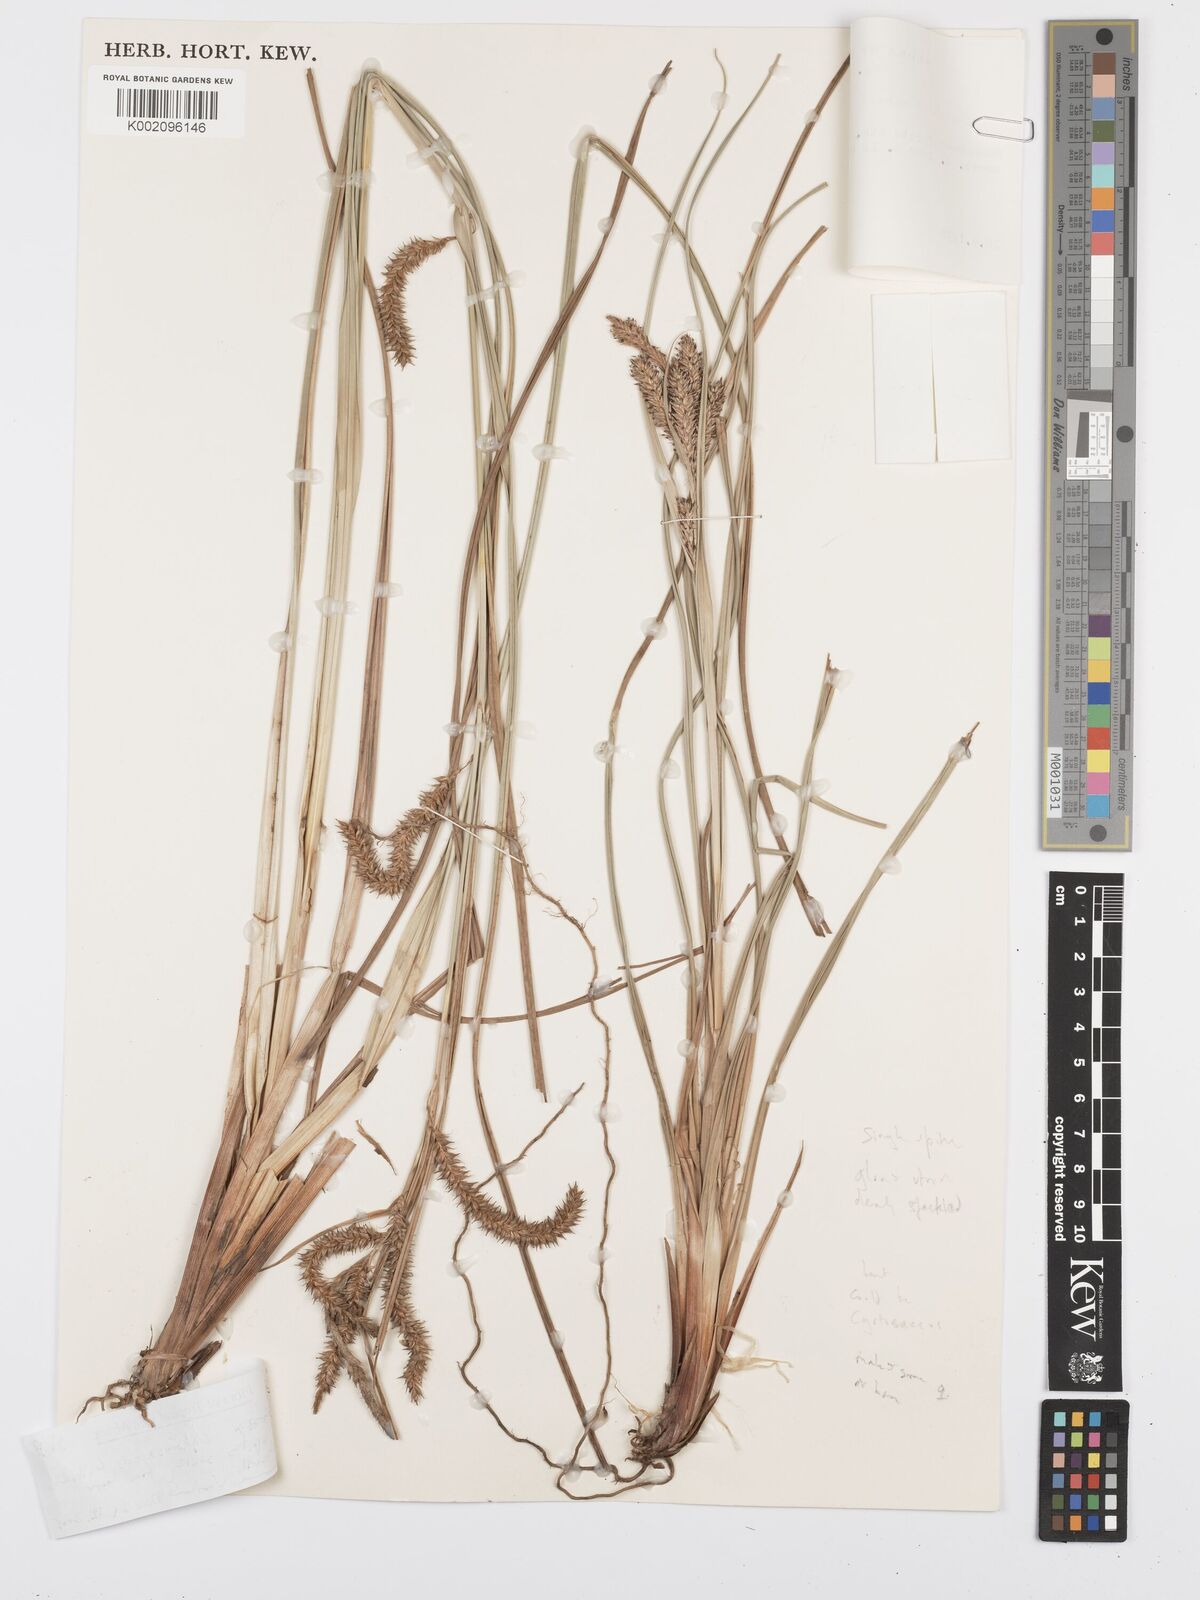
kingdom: Plantae
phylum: Tracheophyta
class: Liliopsida
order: Poales
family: Cyperaceae
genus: Carex
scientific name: Carex
